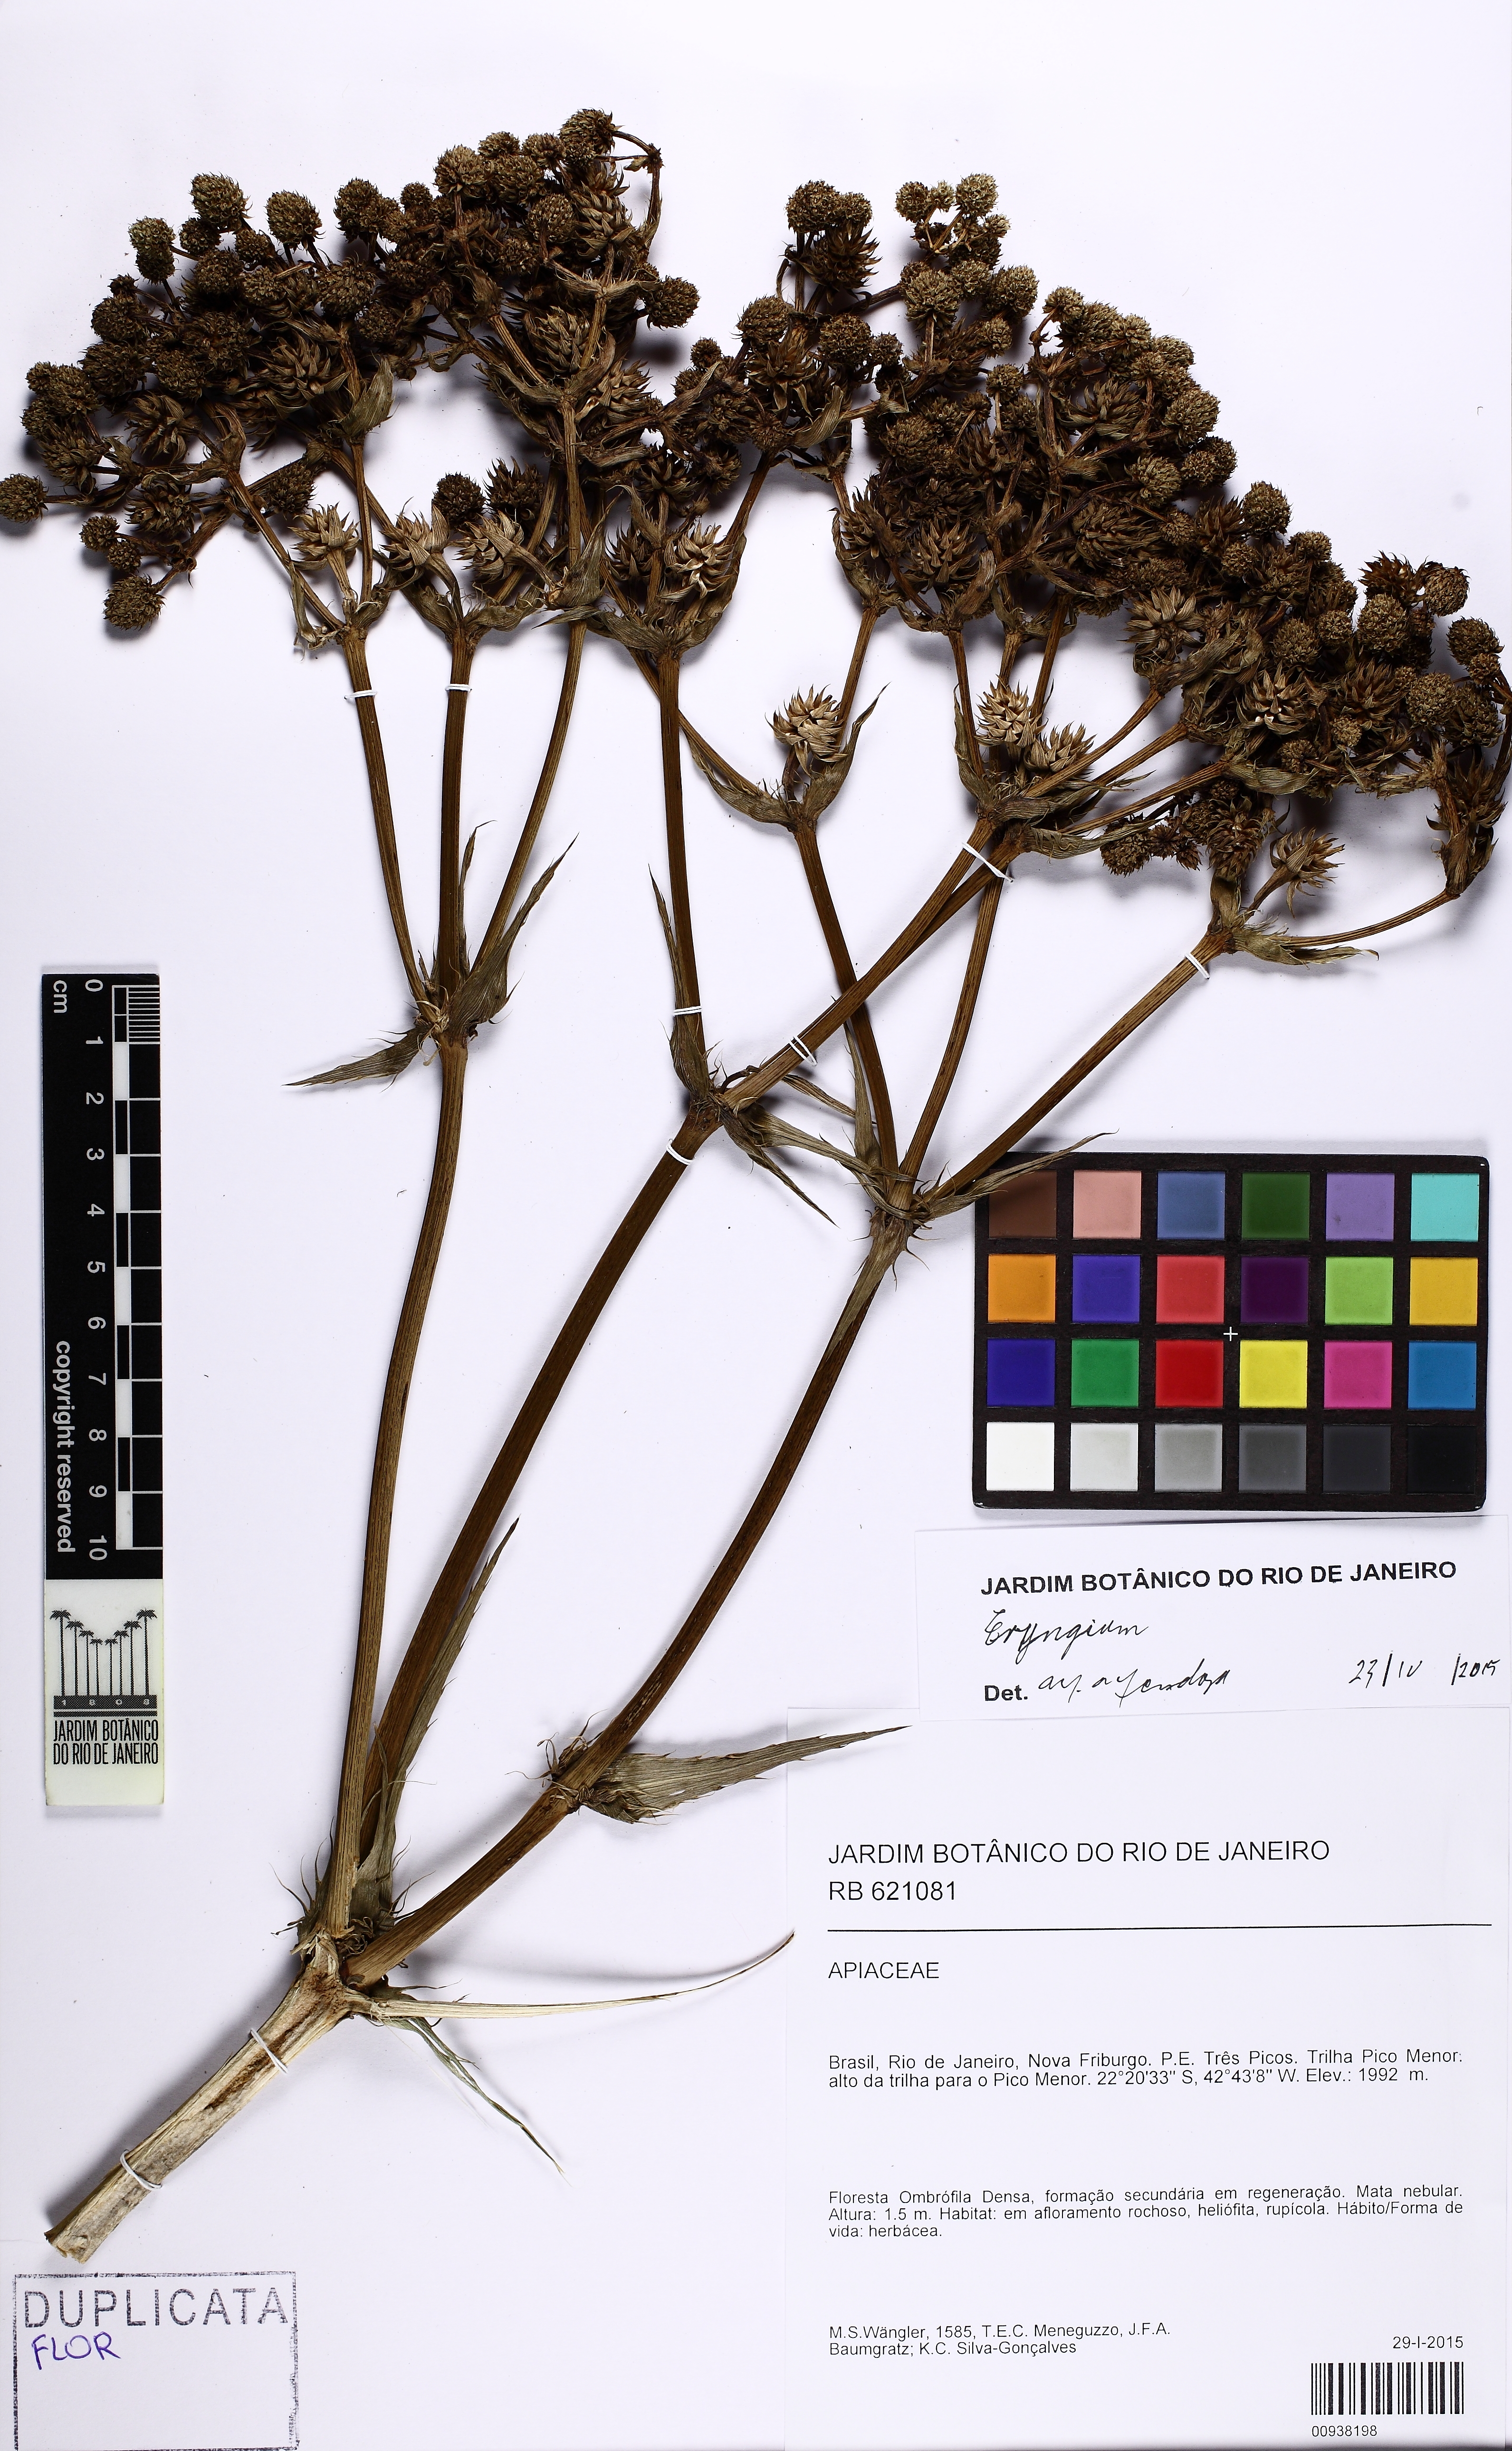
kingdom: Plantae
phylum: Tracheophyta
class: Magnoliopsida
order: Apiales
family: Apiaceae
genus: Eryngium
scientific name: Eryngium fluminense
